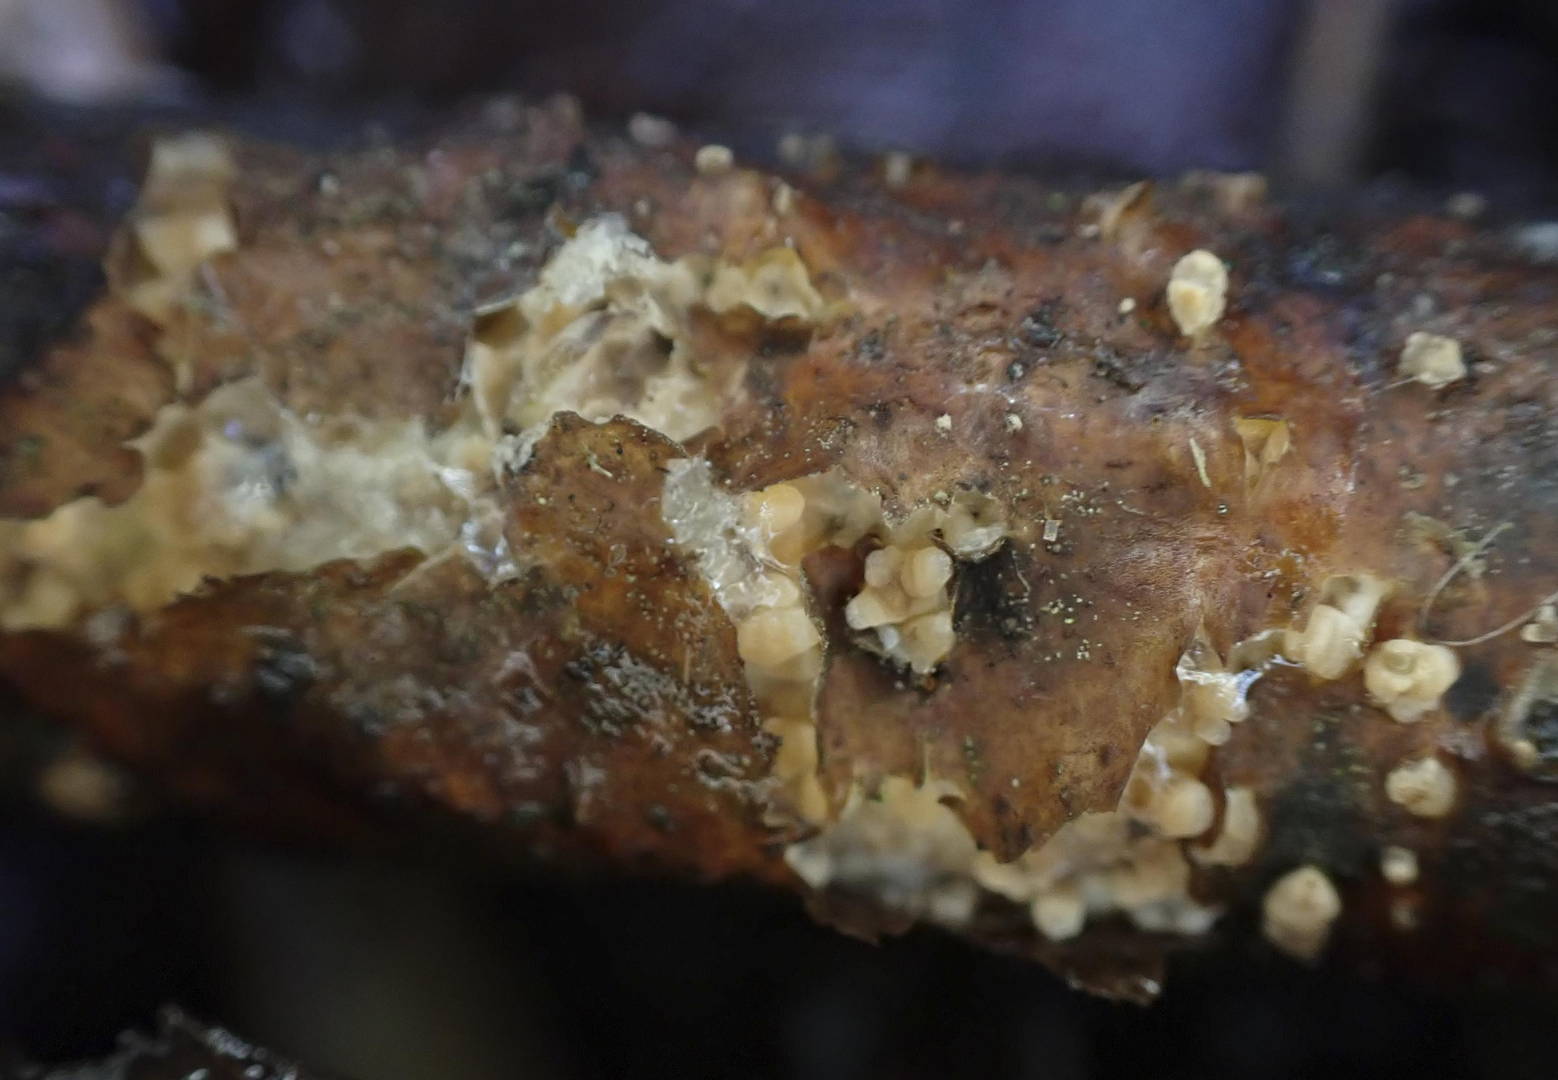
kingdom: Fungi
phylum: Basidiomycota
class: Agaricomycetes
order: Russulales
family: Peniophoraceae
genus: Peniophora
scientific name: Peniophora laeta
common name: tandet voksskind
